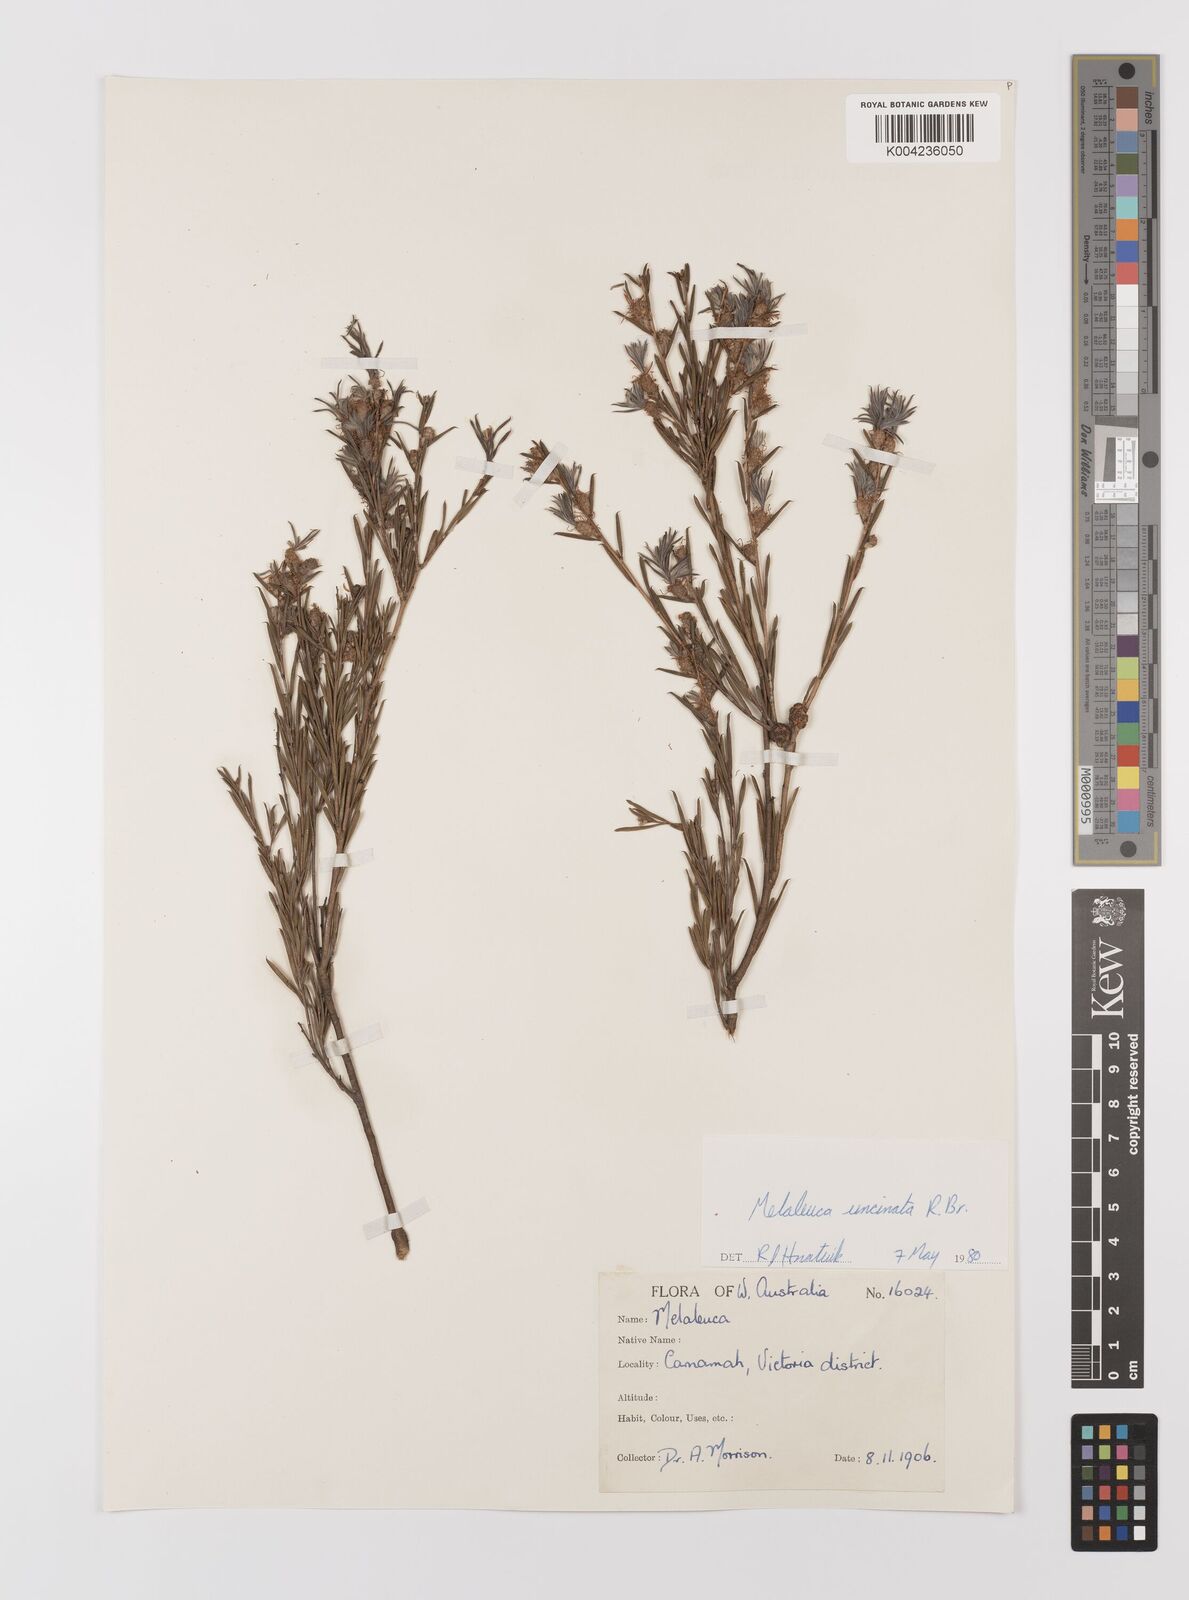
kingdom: Plantae
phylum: Tracheophyta
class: Magnoliopsida
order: Myrtales
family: Myrtaceae
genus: Melaleuca
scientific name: Melaleuca uncinata
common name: Broom honey myrtle
